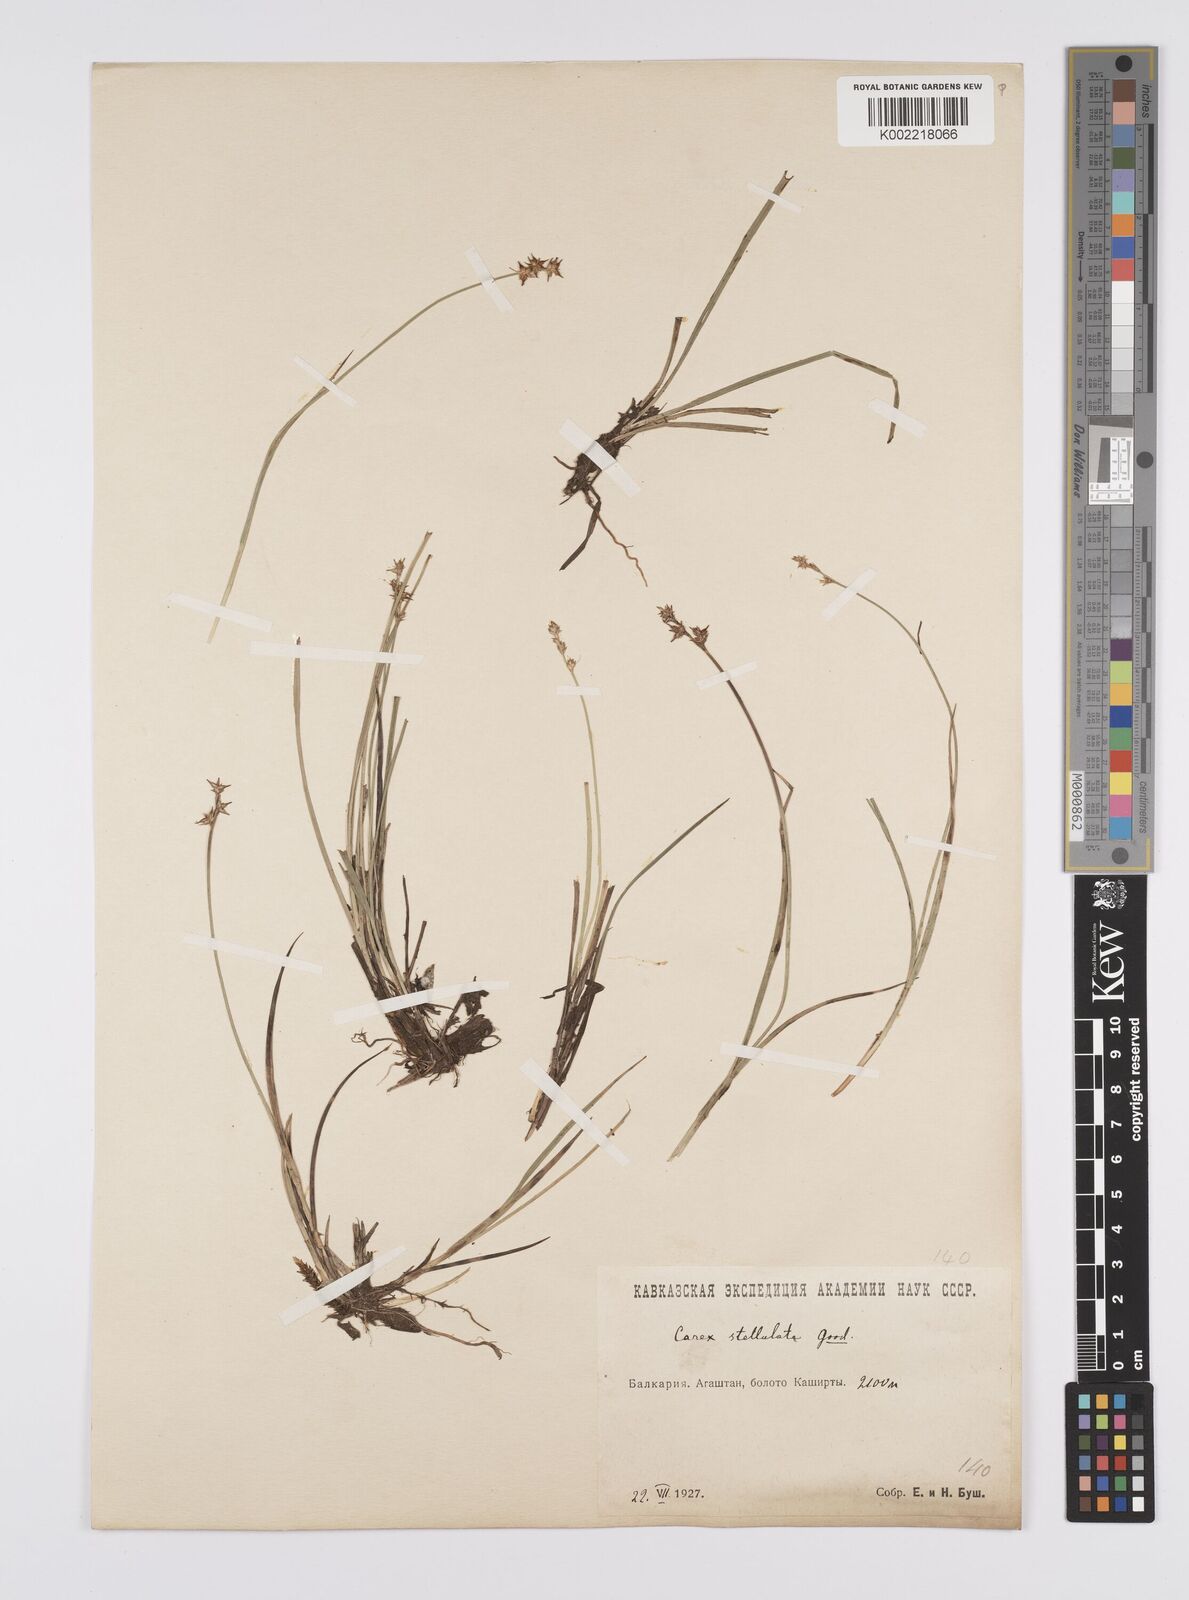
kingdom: Plantae
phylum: Tracheophyta
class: Liliopsida
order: Poales
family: Cyperaceae
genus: Carex
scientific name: Carex echinata
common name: Star sedge
